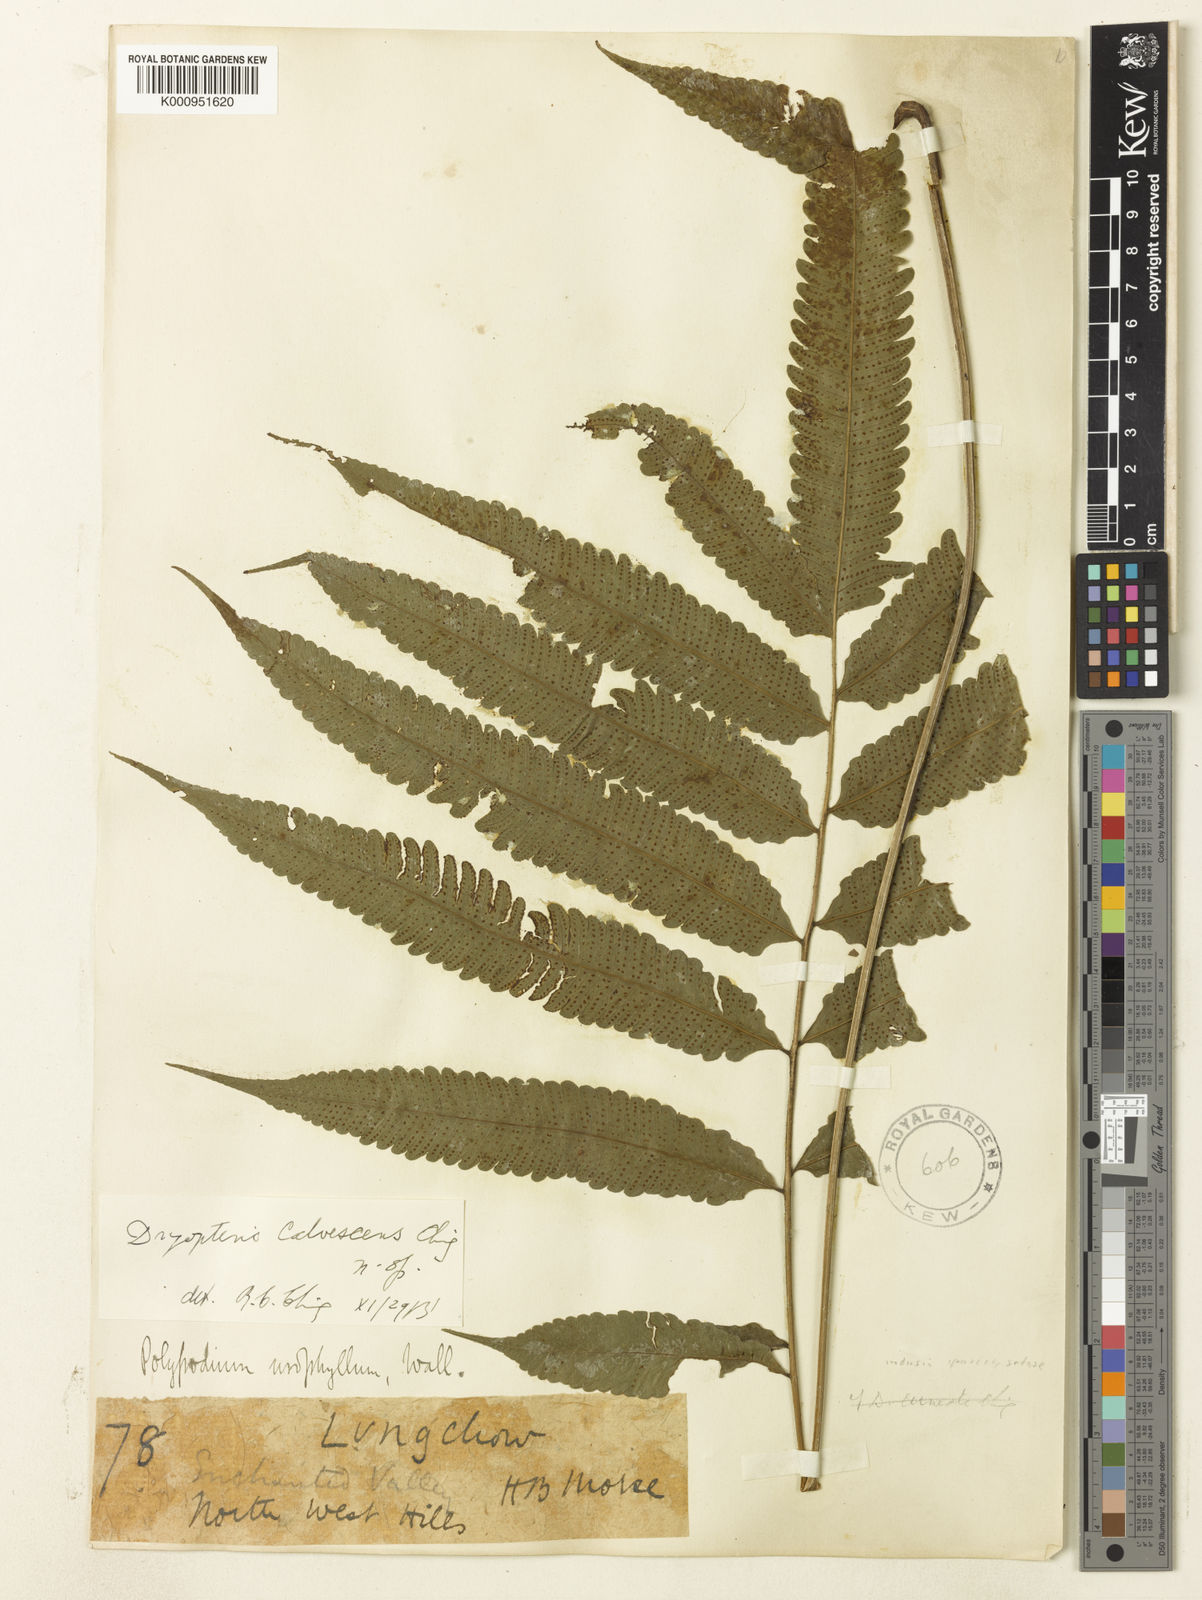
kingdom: Plantae
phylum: Tracheophyta
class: Polypodiopsida
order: Polypodiales
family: Thelypteridaceae
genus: Christella
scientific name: Christella calvescens
